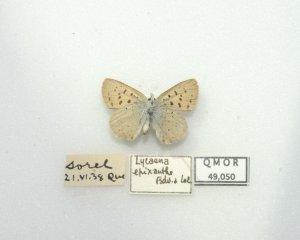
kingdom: Animalia
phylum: Arthropoda
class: Insecta
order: Lepidoptera
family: Sesiidae
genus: Sesia
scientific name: Sesia Lycaena epixanthe
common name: Bog Copper
